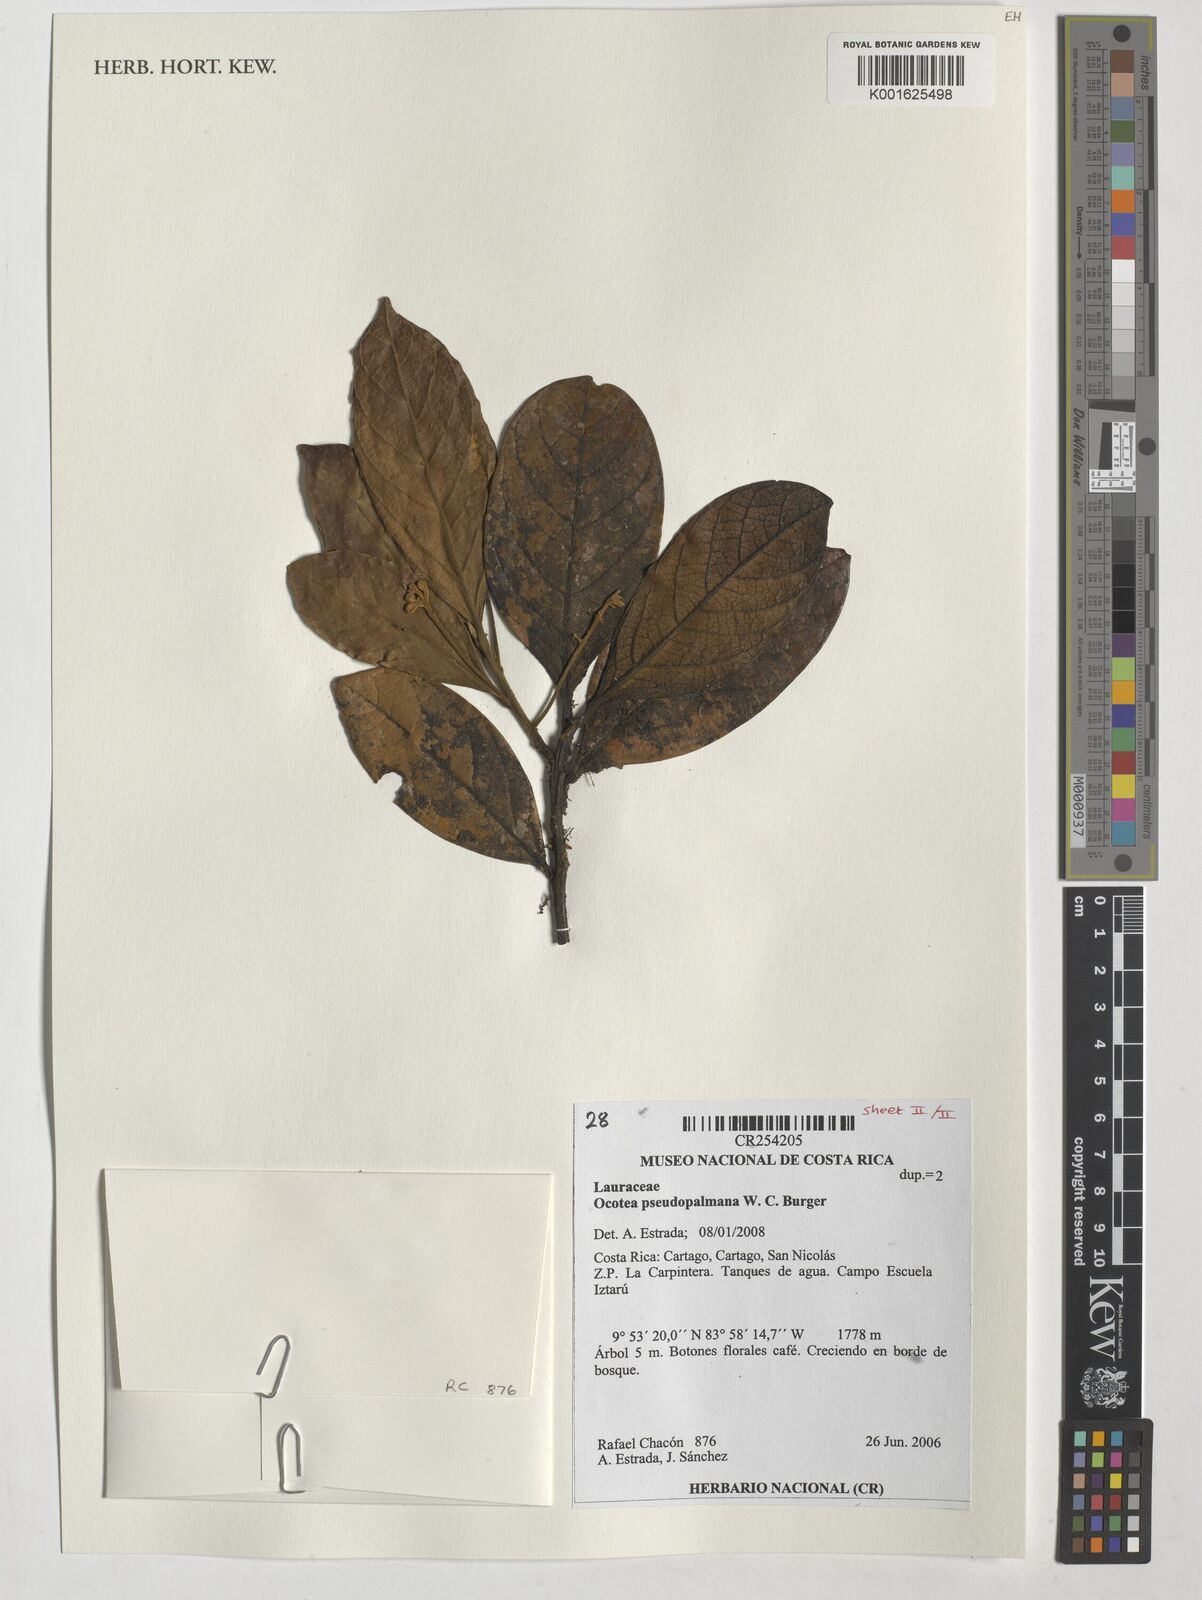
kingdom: Plantae
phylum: Tracheophyta
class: Magnoliopsida
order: Laurales
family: Lauraceae
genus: Ocotea
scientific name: Ocotea pseudopalmana
